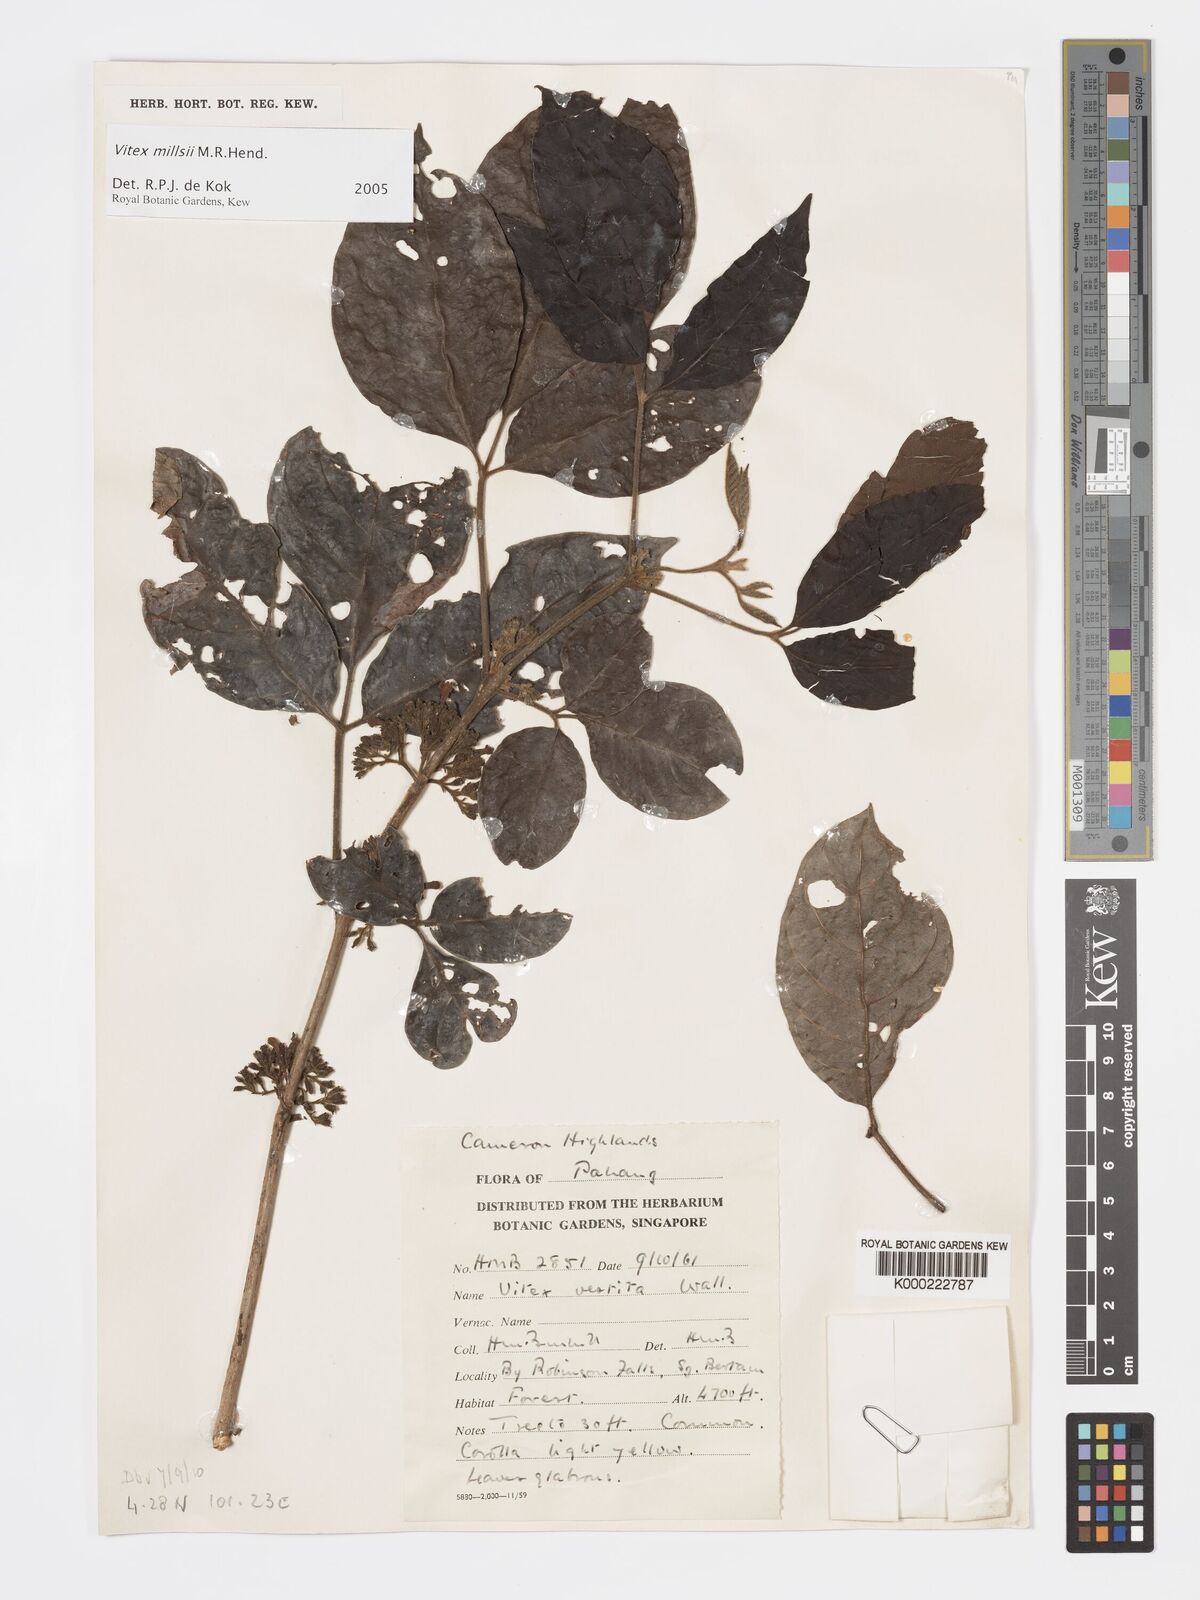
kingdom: Plantae
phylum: Tracheophyta
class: Magnoliopsida
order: Lamiales
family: Lamiaceae
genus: Vitex
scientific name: Vitex millsii
